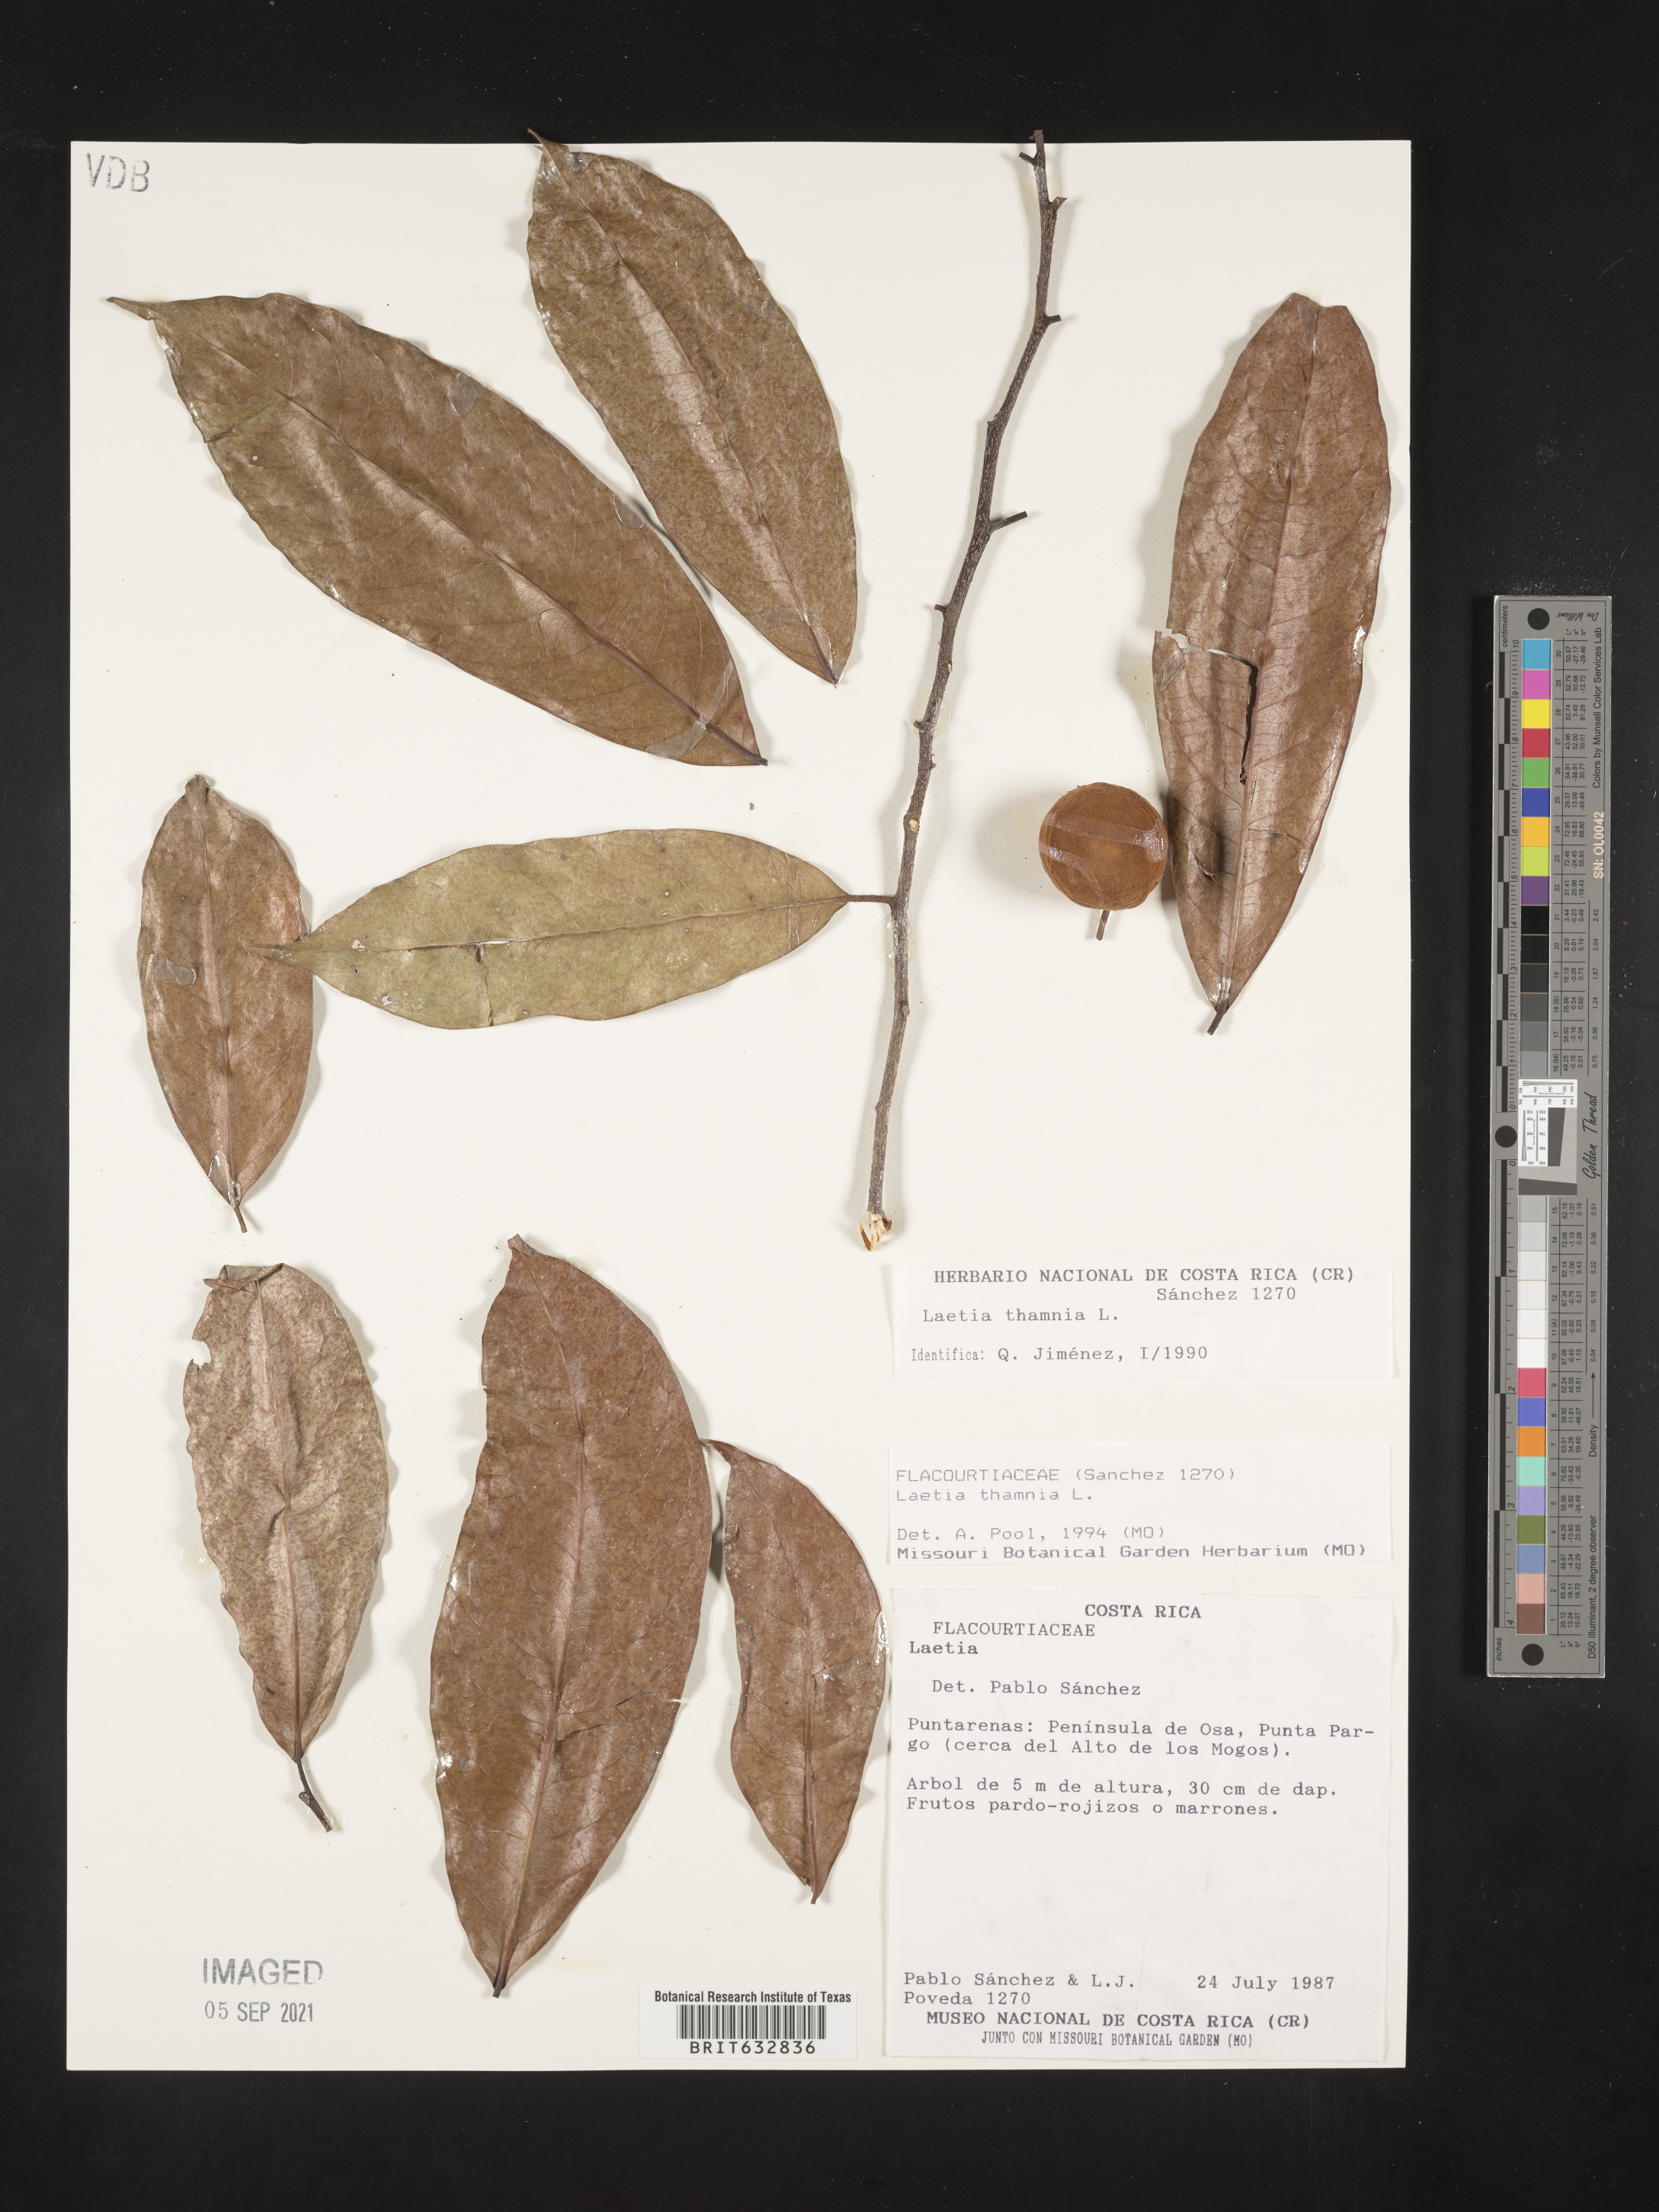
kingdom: Plantae
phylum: Tracheophyta
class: Magnoliopsida
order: Malpighiales
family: Flacourtiaceae
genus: Laetia
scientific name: Laetia
